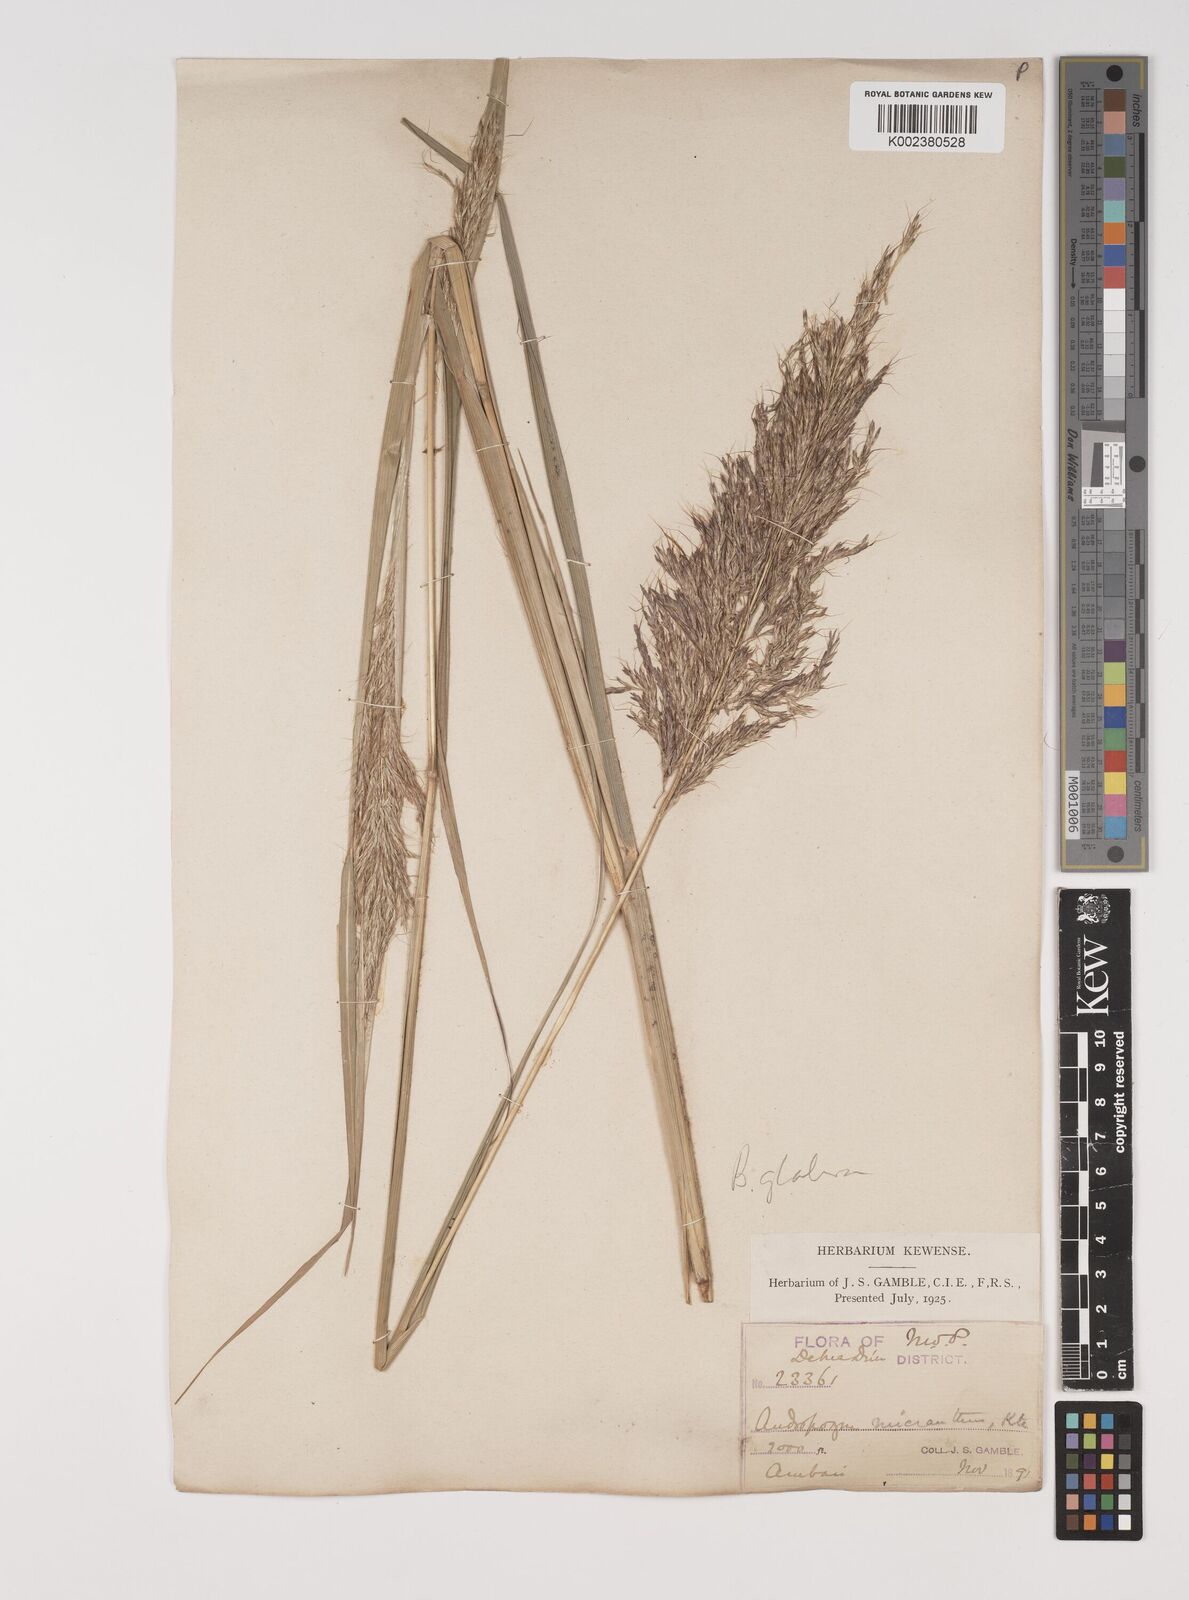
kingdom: Plantae
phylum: Tracheophyta
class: Liliopsida
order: Poales
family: Poaceae
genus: Bothriochloa
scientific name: Bothriochloa bladhii
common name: Caucasian bluestem
